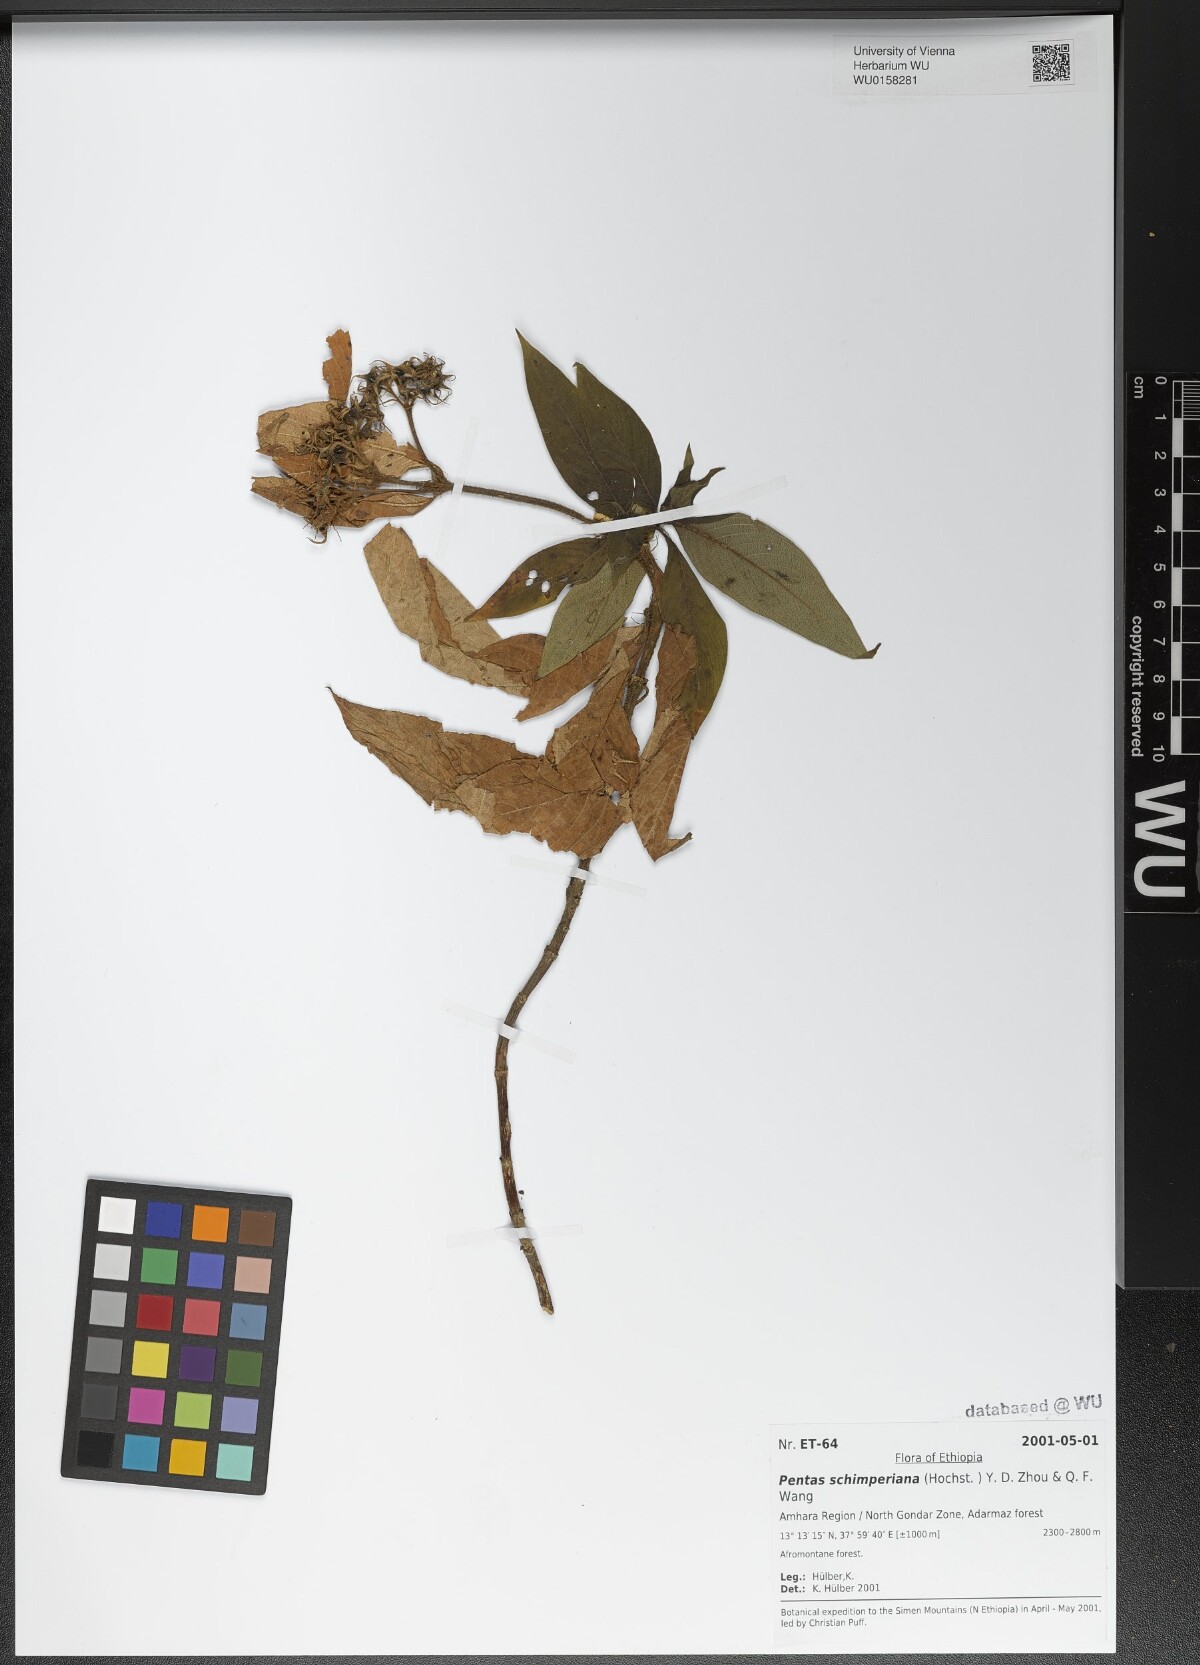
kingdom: Plantae
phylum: Tracheophyta
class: Magnoliopsida
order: Gentianales
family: Rubiaceae
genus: Phyllopentas
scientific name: Phyllopentas schimperi
